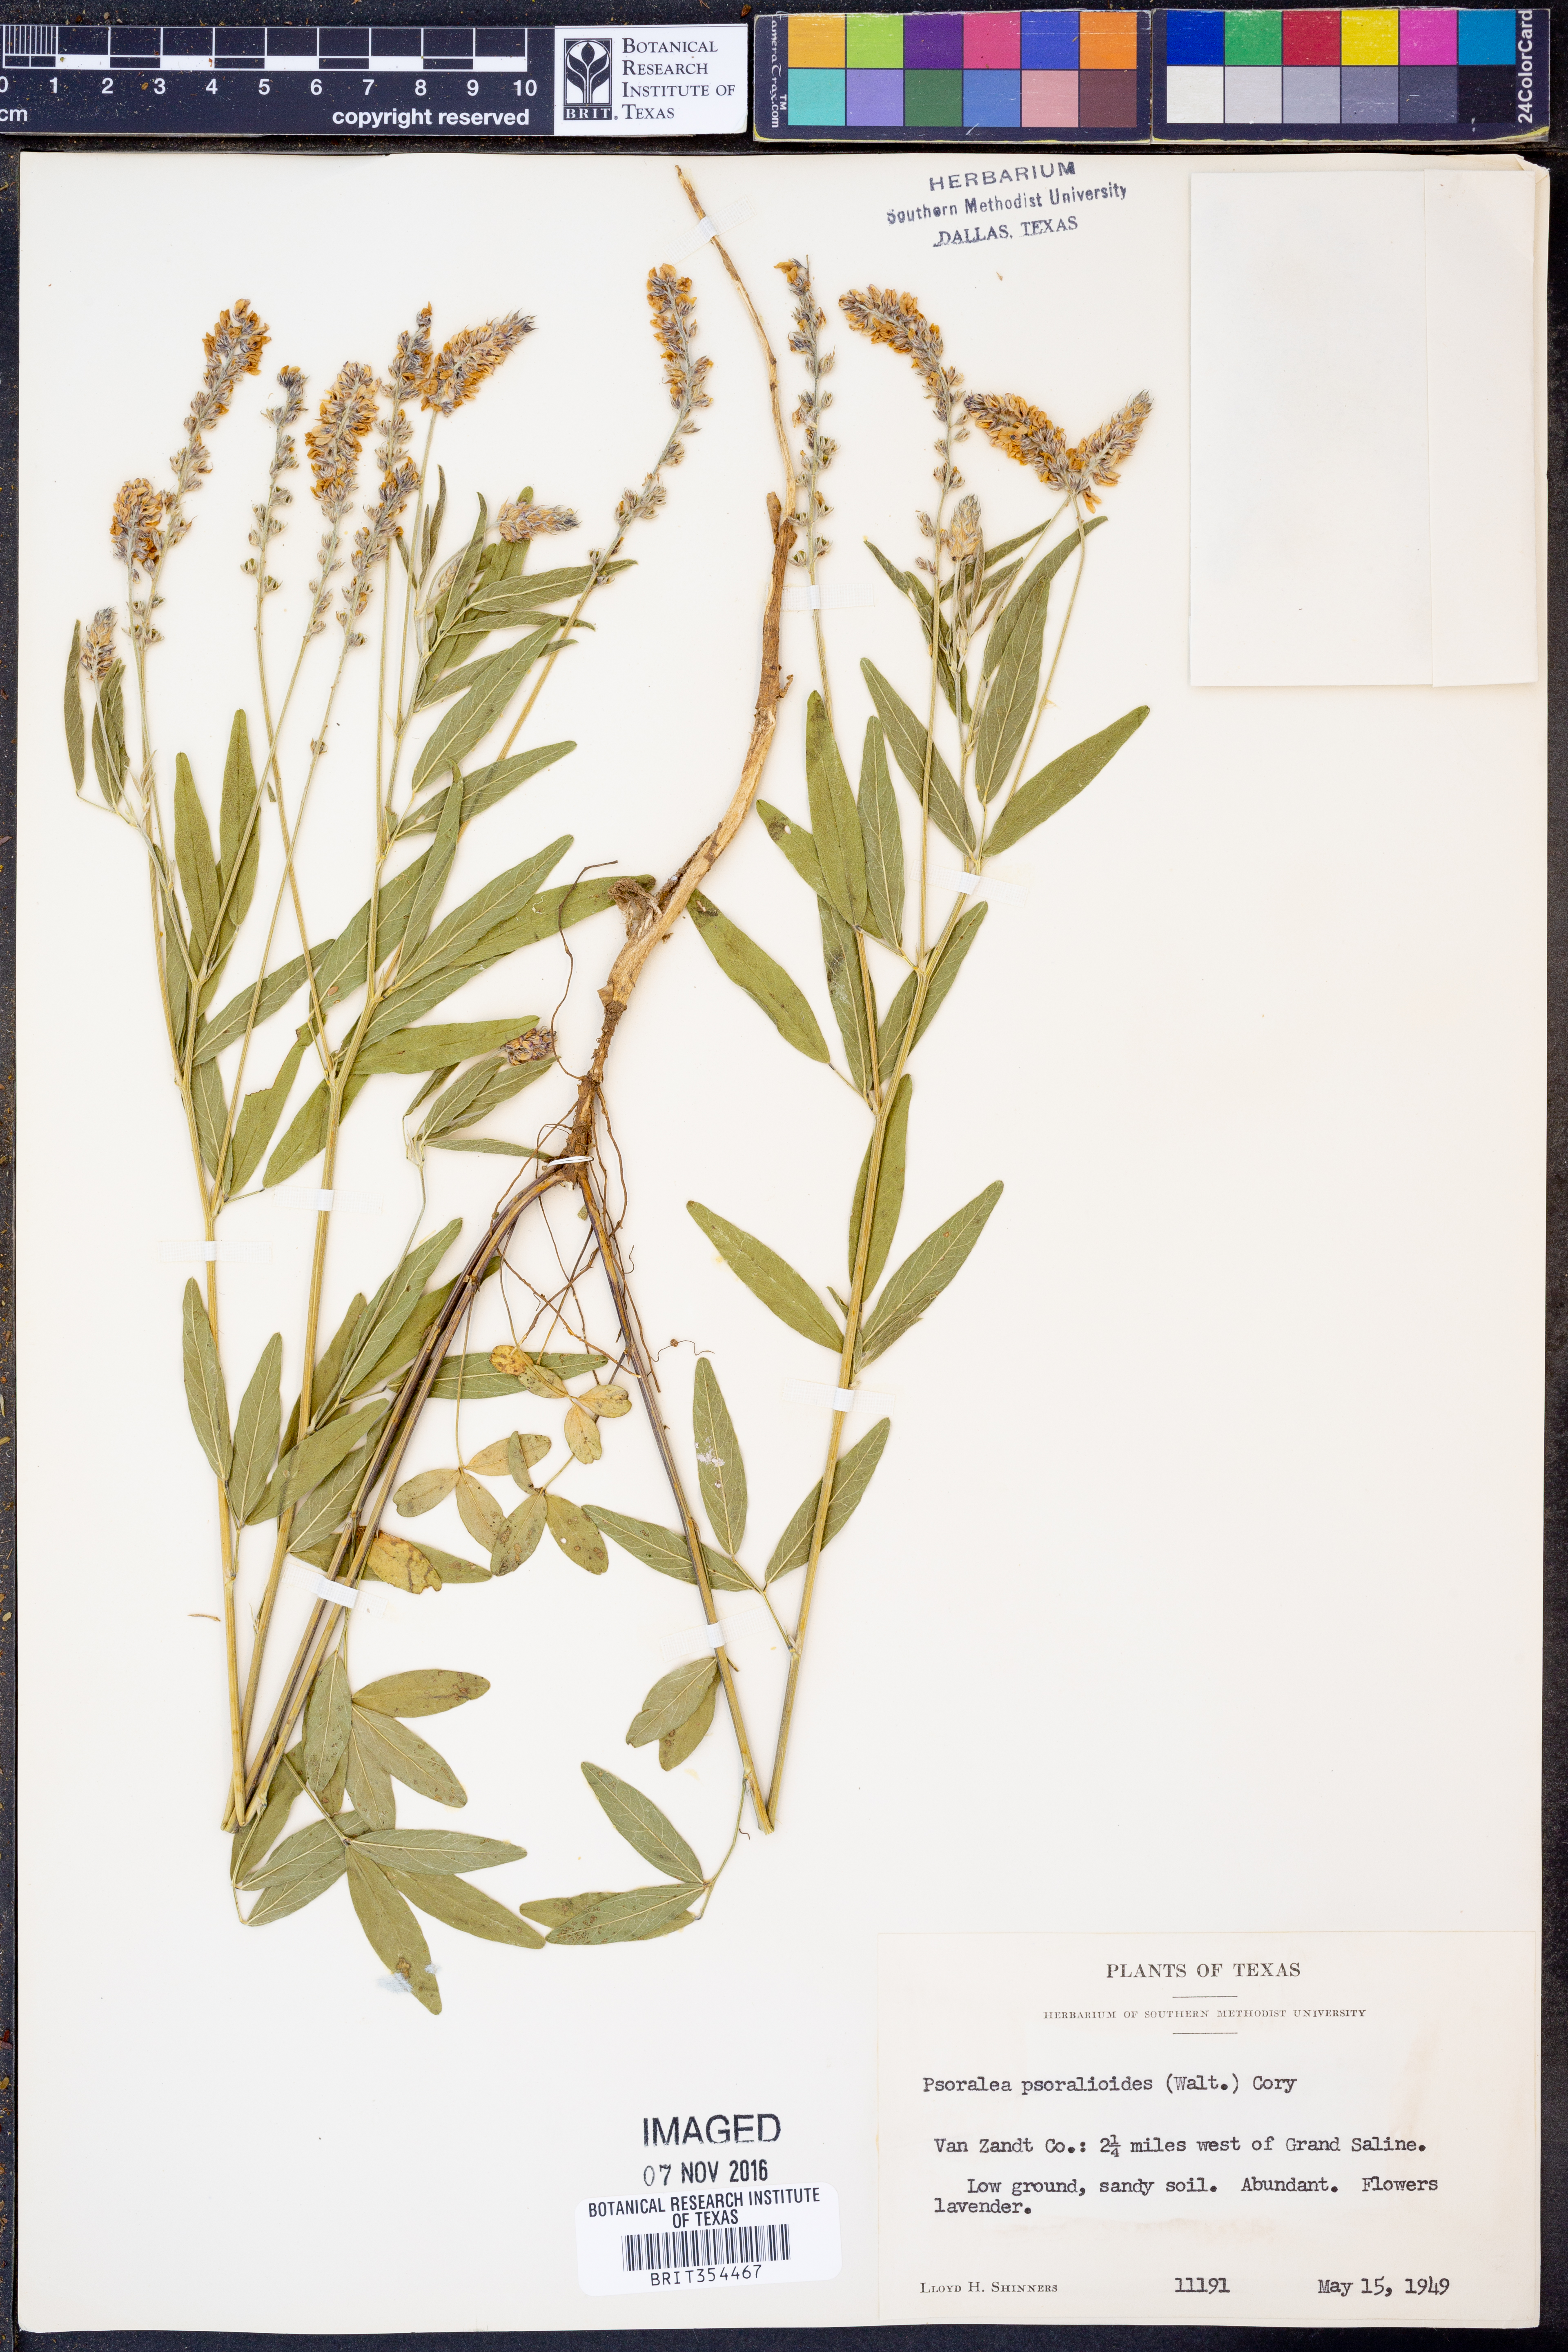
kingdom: Plantae
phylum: Tracheophyta
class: Magnoliopsida
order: Fabales
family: Fabaceae
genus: Orbexilum
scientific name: Orbexilum psoralioides
